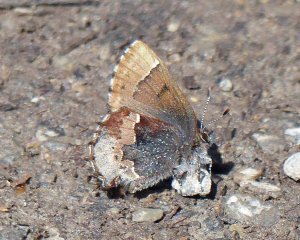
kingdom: Animalia
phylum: Arthropoda
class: Insecta
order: Lepidoptera
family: Lycaenidae
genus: Incisalia
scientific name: Incisalia henrici
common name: Henry's Elfin
